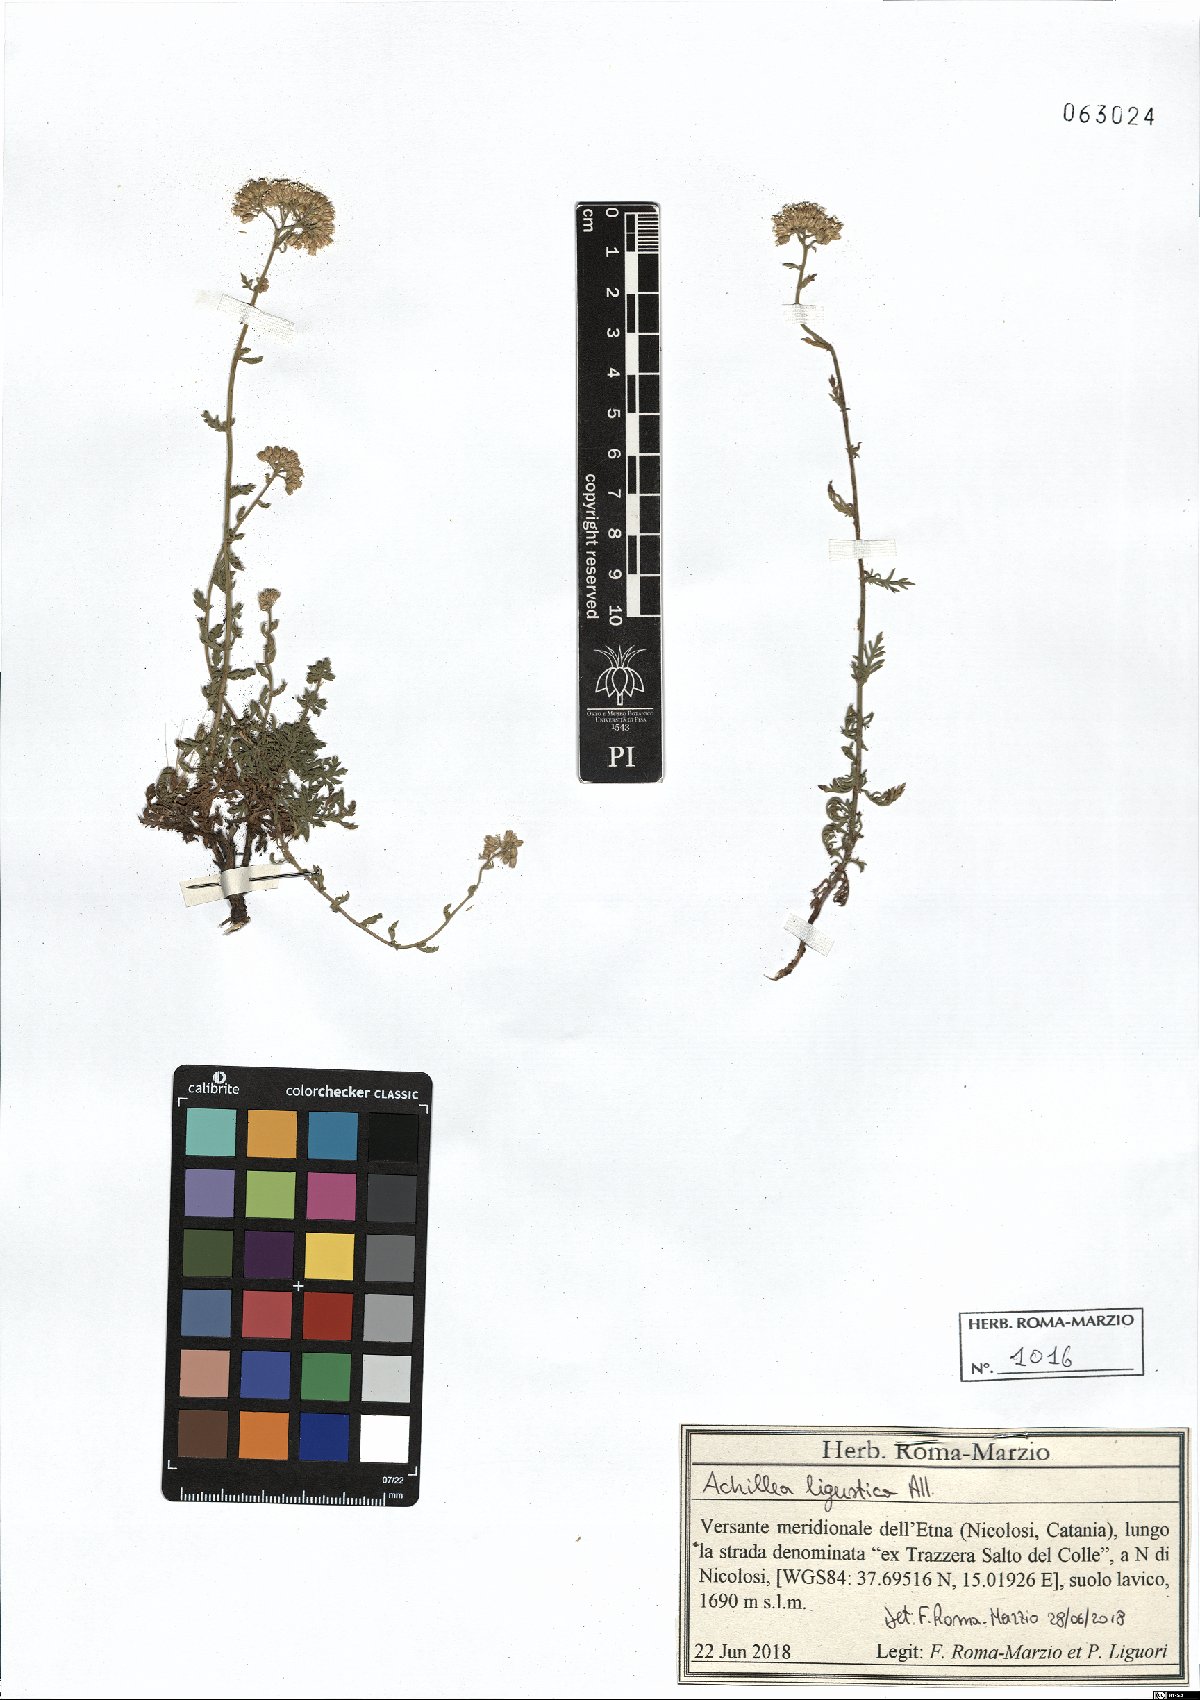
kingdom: Plantae
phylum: Tracheophyta
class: Magnoliopsida
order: Asterales
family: Asteraceae
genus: Achillea
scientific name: Achillea ligustica
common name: Southern yarrow
